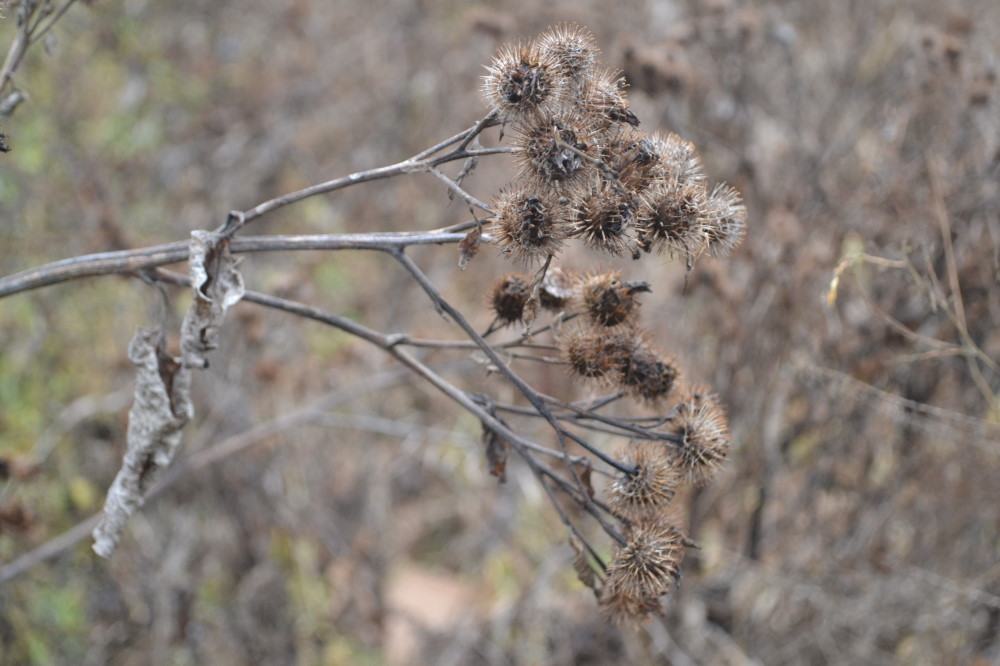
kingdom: Plantae
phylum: Tracheophyta
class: Magnoliopsida
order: Asterales
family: Asteraceae
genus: Arctium
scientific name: Arctium tomentosum
